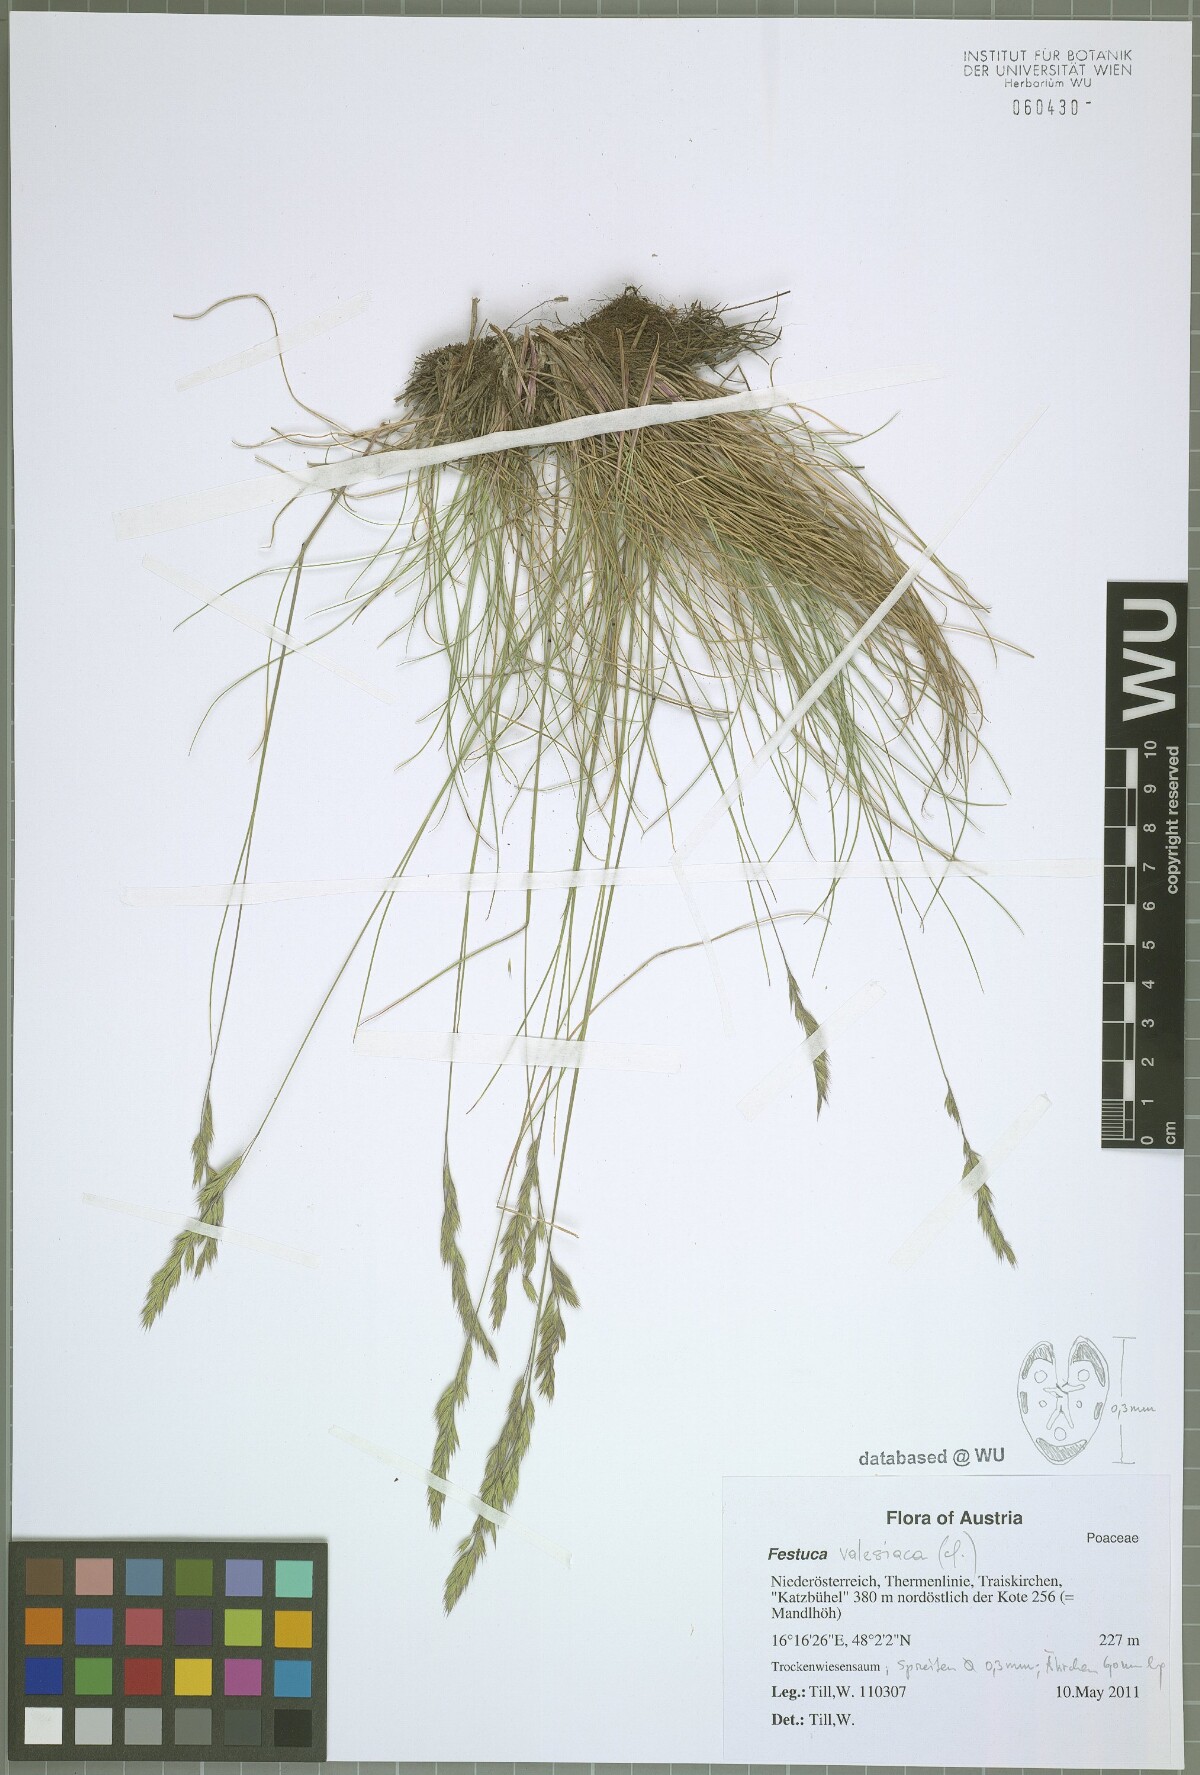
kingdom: Plantae
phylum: Tracheophyta
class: Liliopsida
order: Poales
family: Poaceae
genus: Festuca
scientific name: Festuca valesiaca
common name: Volga fescue
